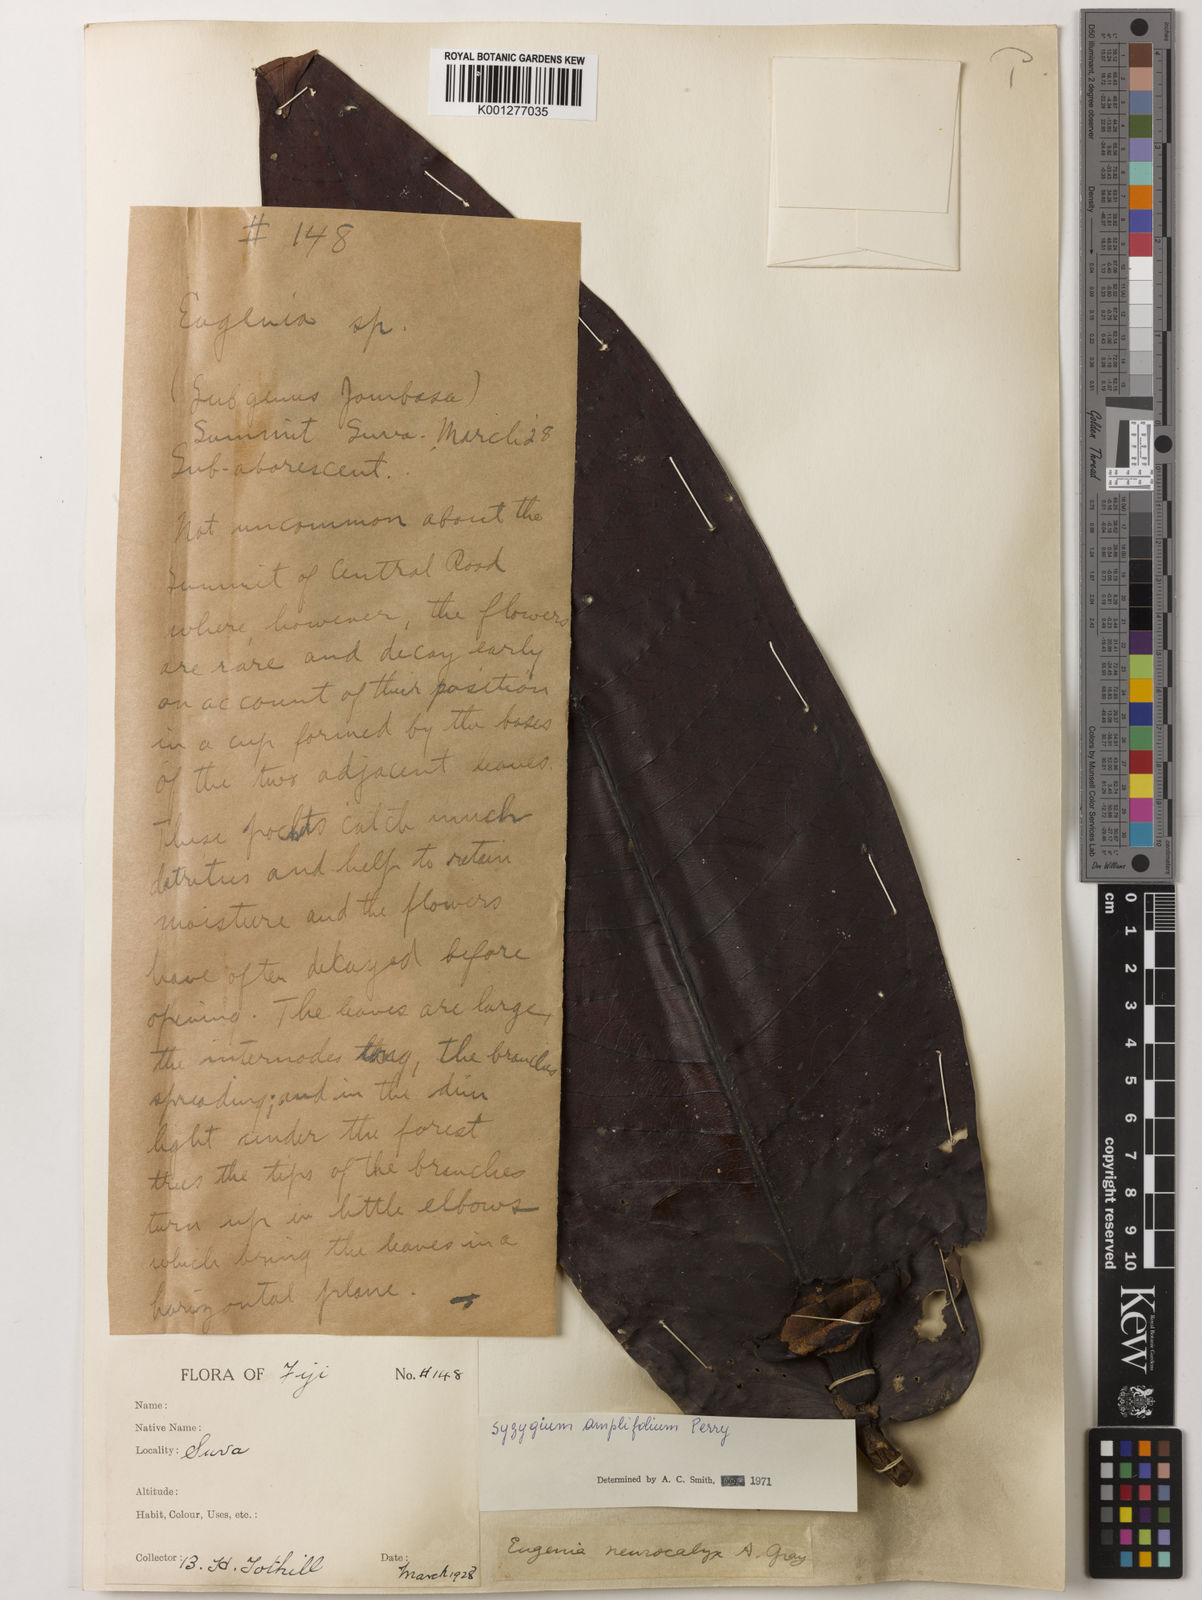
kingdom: Plantae
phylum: Tracheophyta
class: Magnoliopsida
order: Myrtales
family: Myrtaceae
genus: Syzygium
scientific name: Syzygium amplifolium
